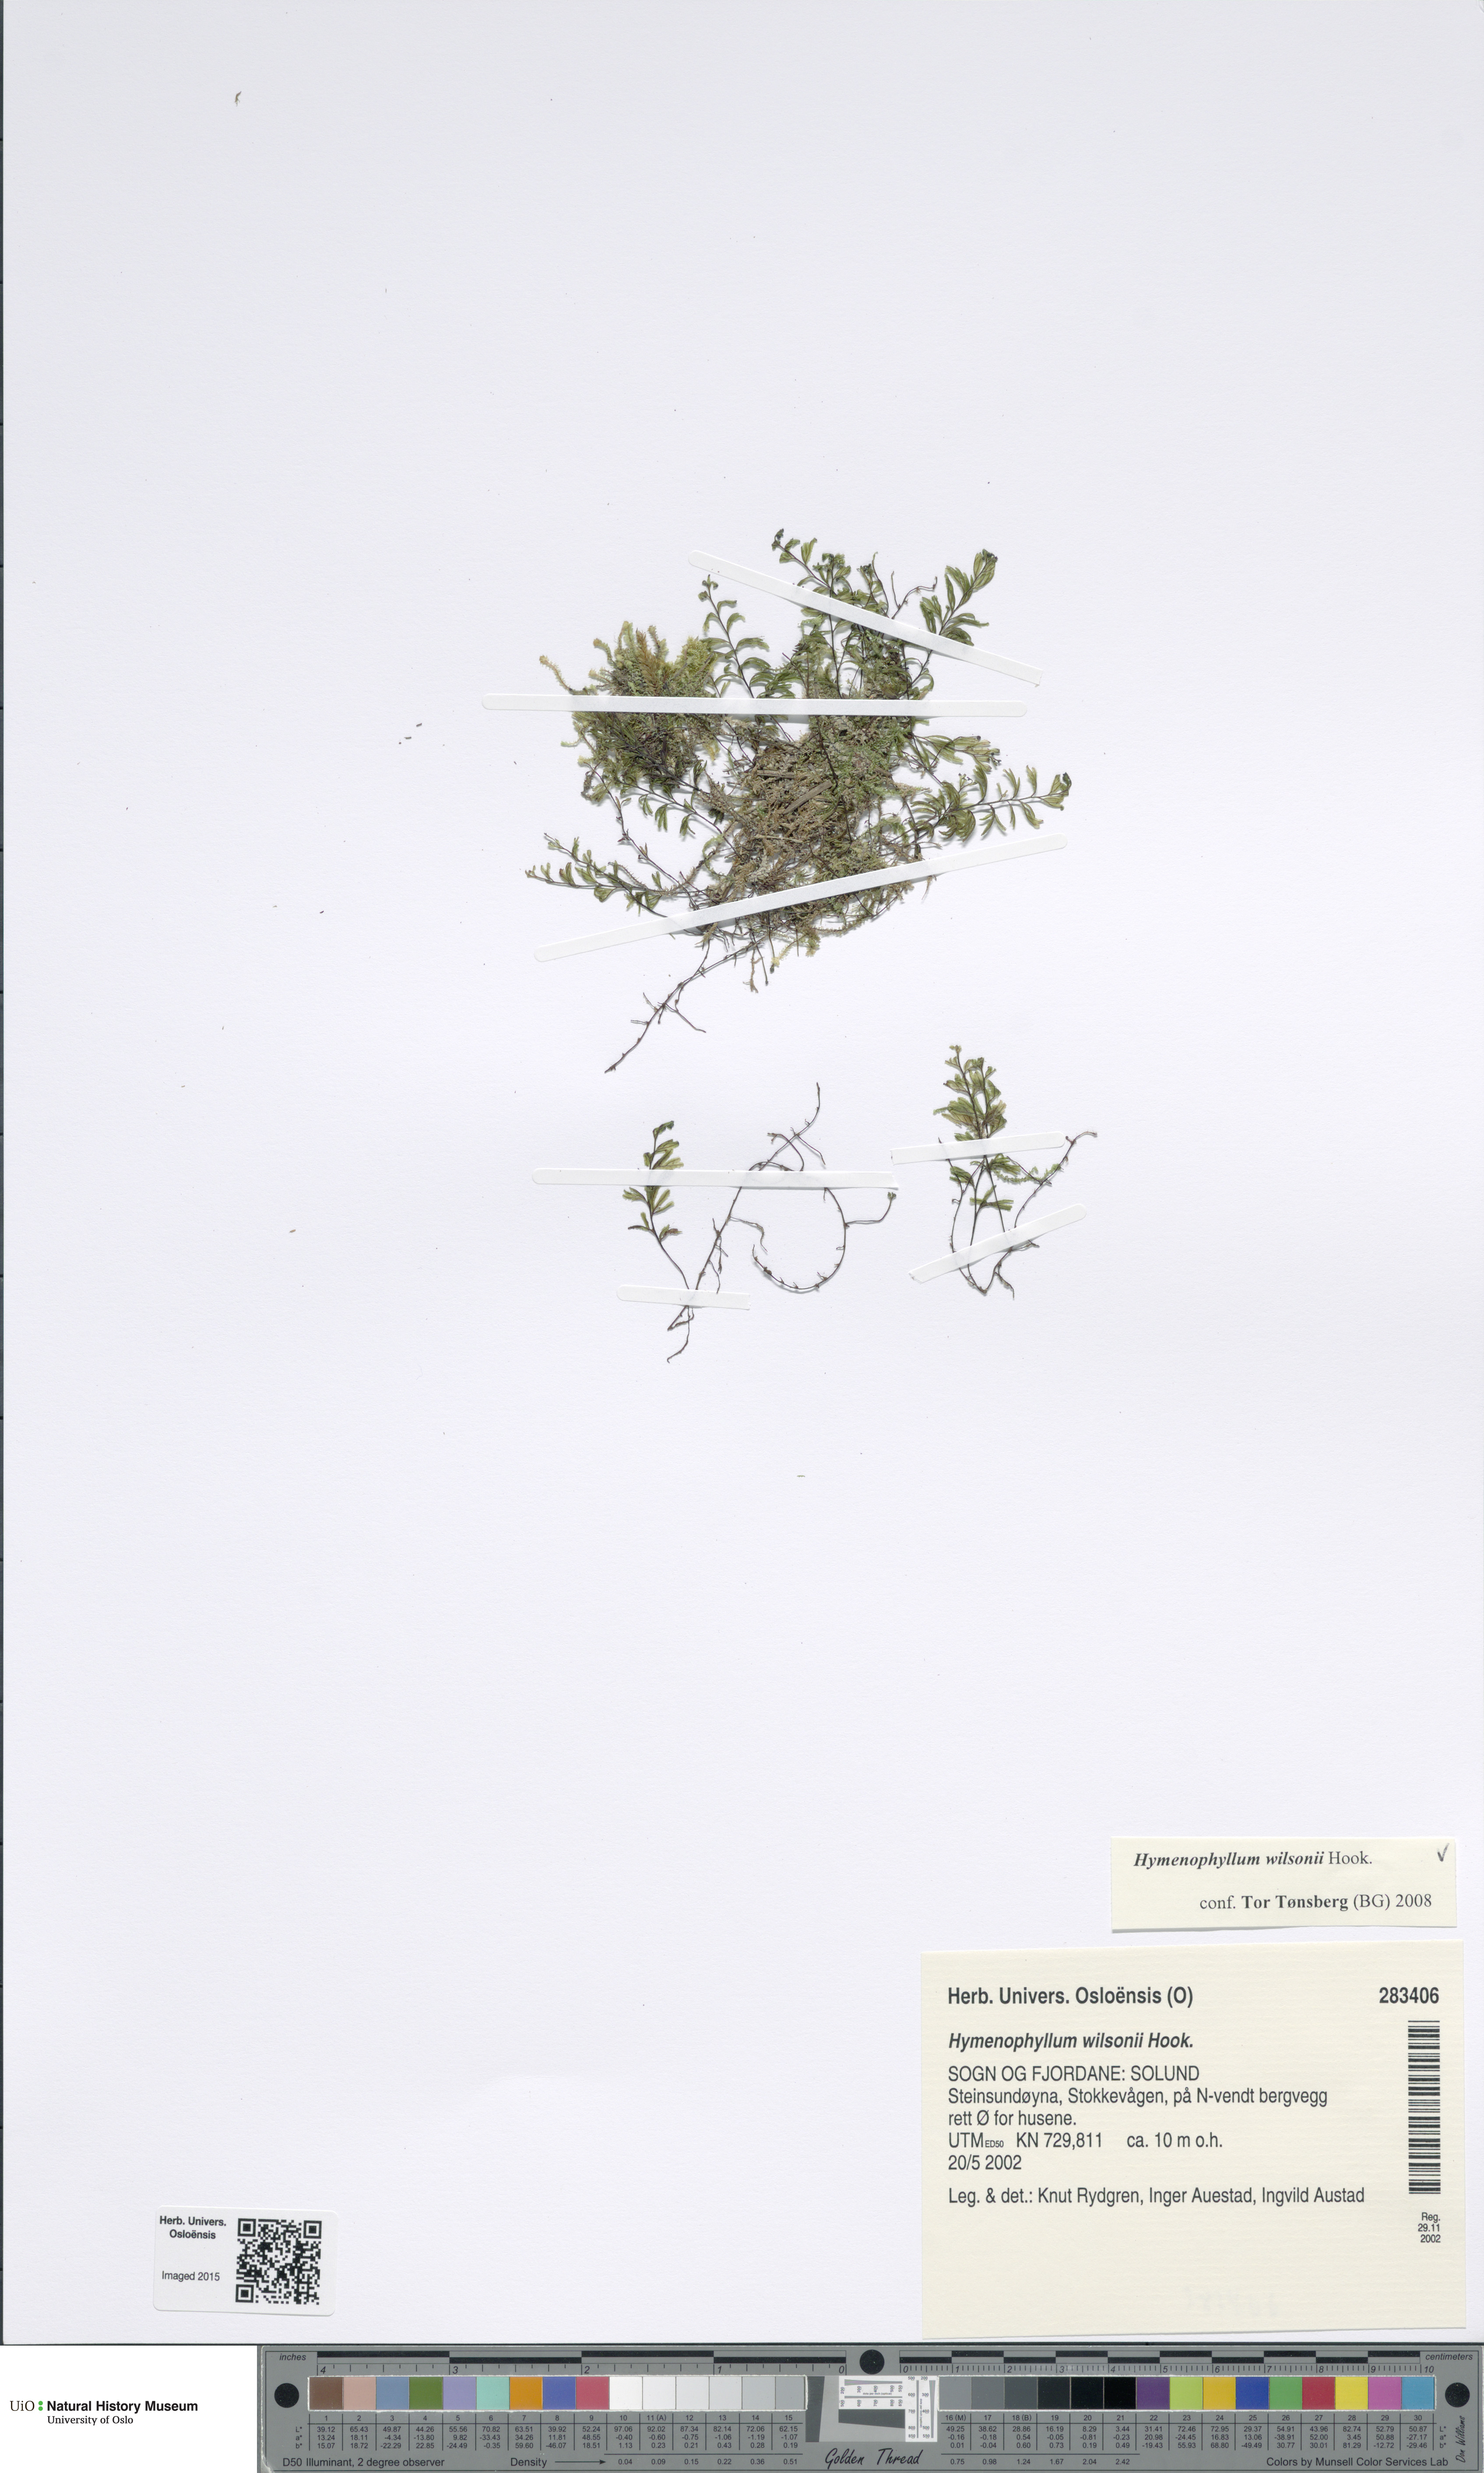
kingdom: Plantae
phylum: Tracheophyta
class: Polypodiopsida
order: Hymenophyllales
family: Hymenophyllaceae
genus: Hymenophyllum
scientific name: Hymenophyllum peltatum
